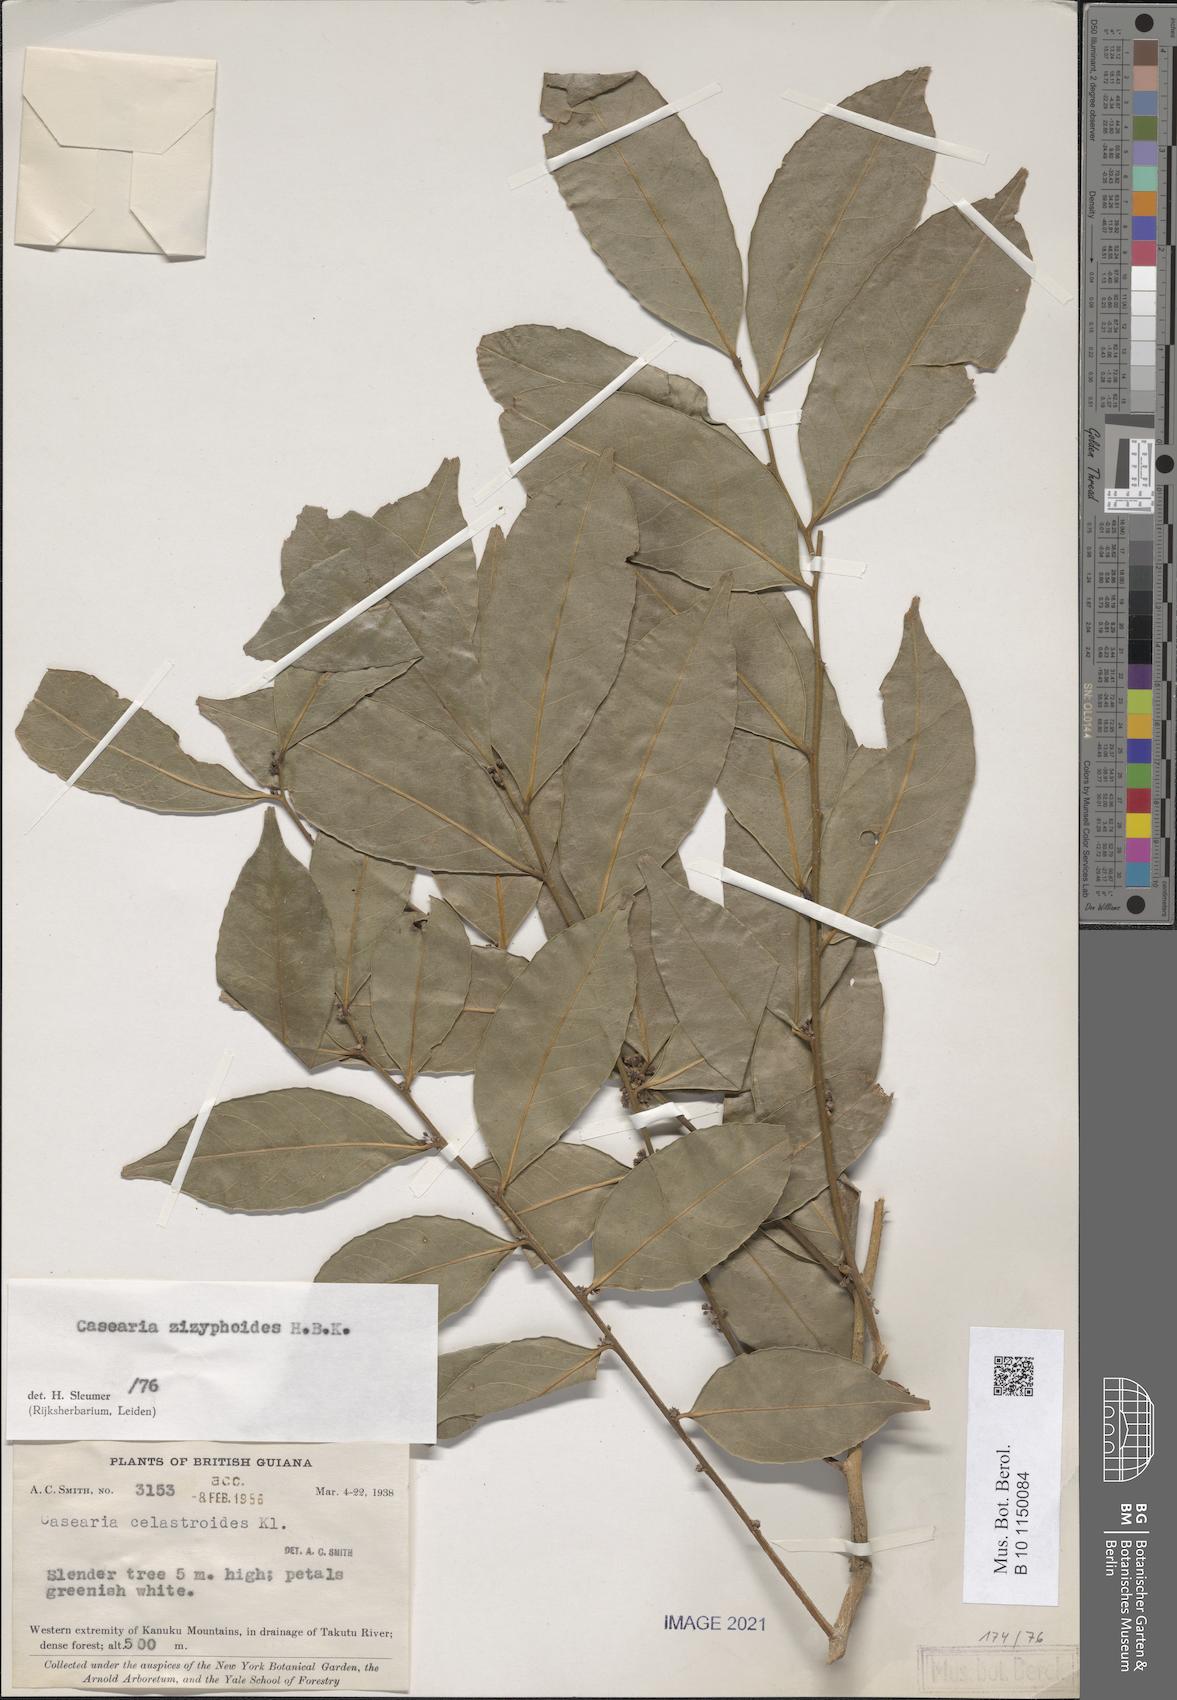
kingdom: Plantae
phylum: Tracheophyta
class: Magnoliopsida
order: Malpighiales
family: Salicaceae
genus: Casearia
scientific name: Casearia zizyphoides
